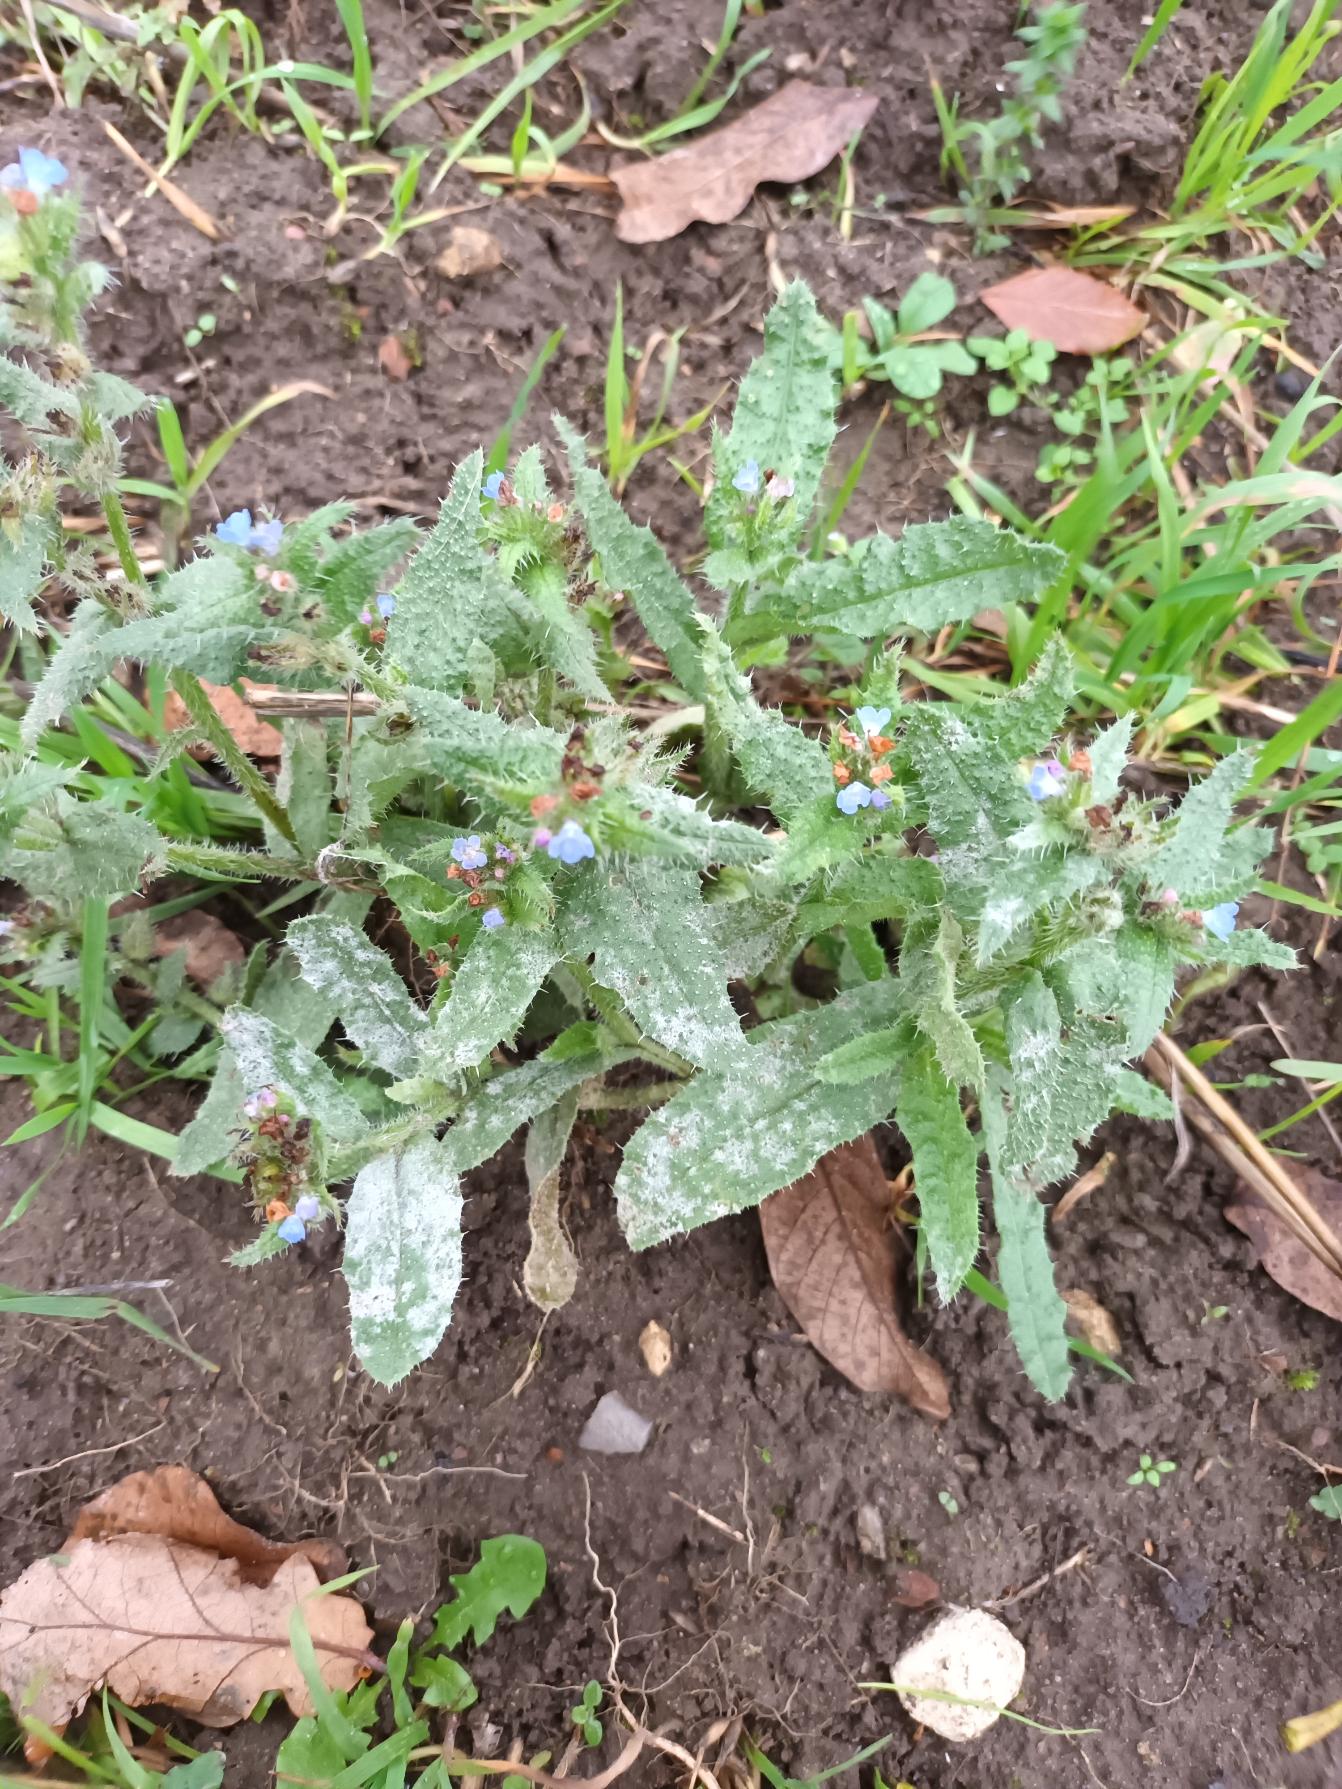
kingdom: Plantae
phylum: Tracheophyta
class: Magnoliopsida
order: Boraginales
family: Boraginaceae
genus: Lycopsis
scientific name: Lycopsis arvensis
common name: Krumhals
